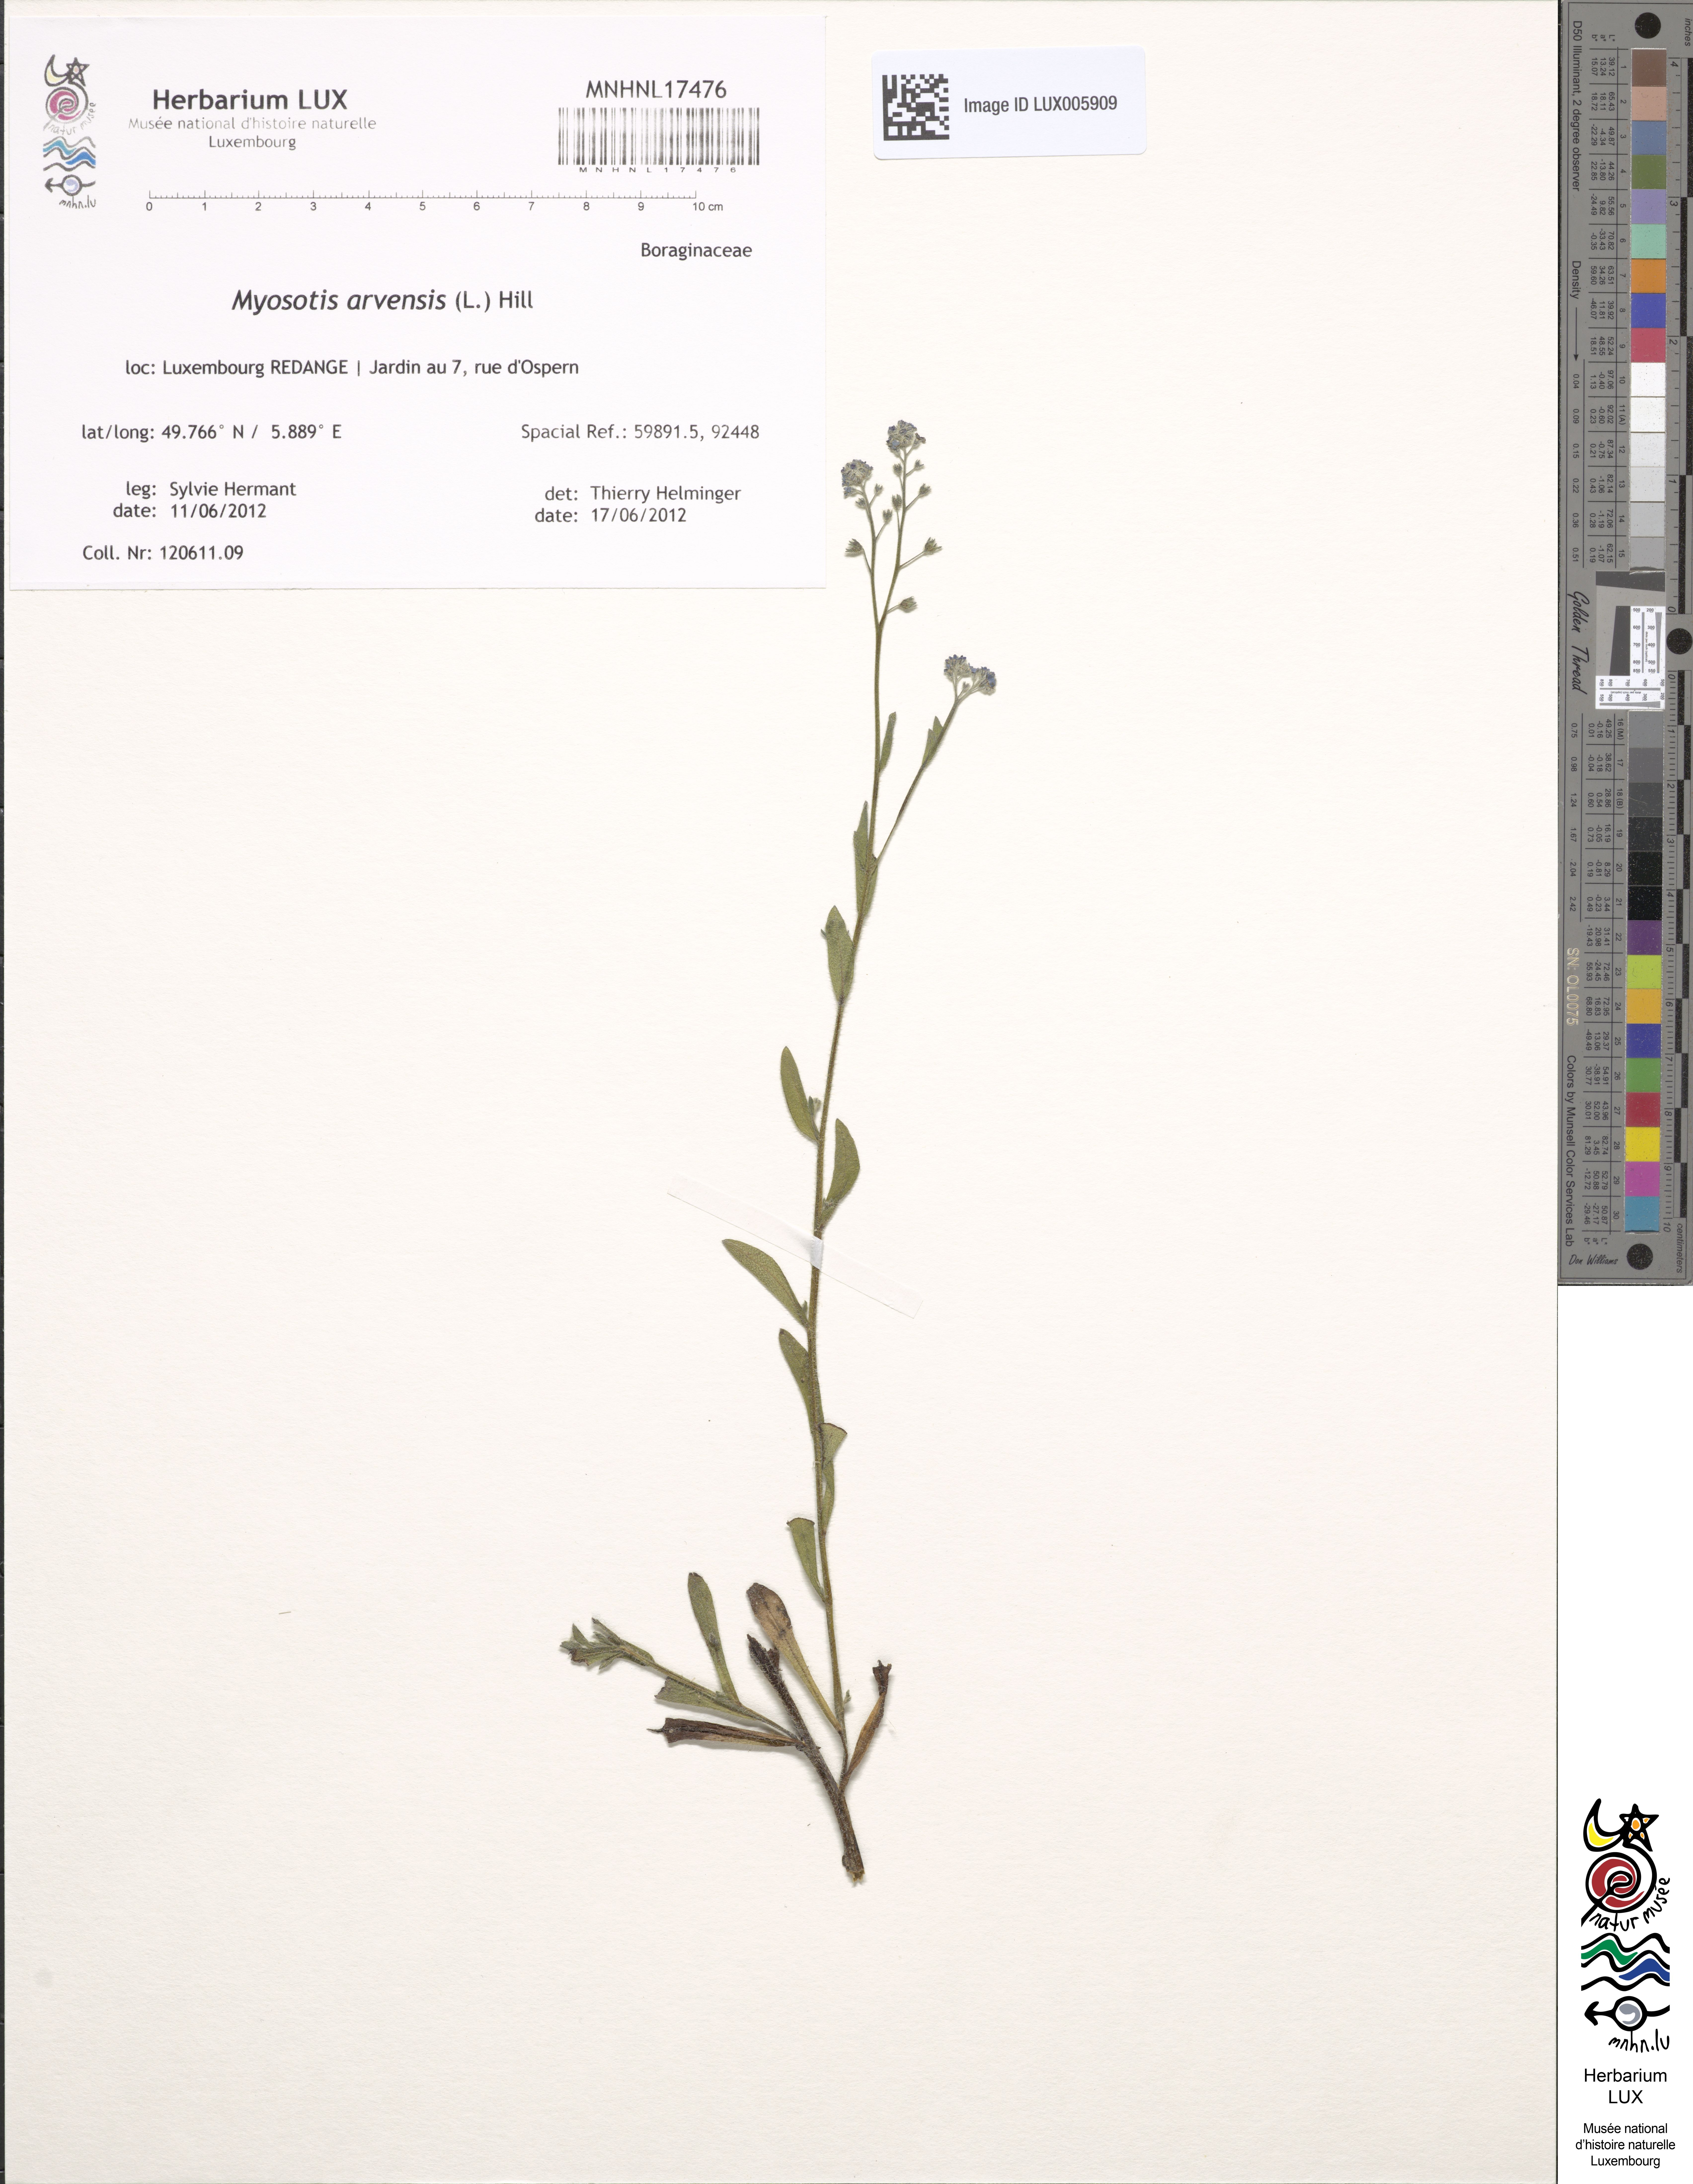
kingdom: Plantae
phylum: Tracheophyta
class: Magnoliopsida
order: Boraginales
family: Boraginaceae
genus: Myosotis
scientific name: Myosotis arvensis
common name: Field forget-me-not
